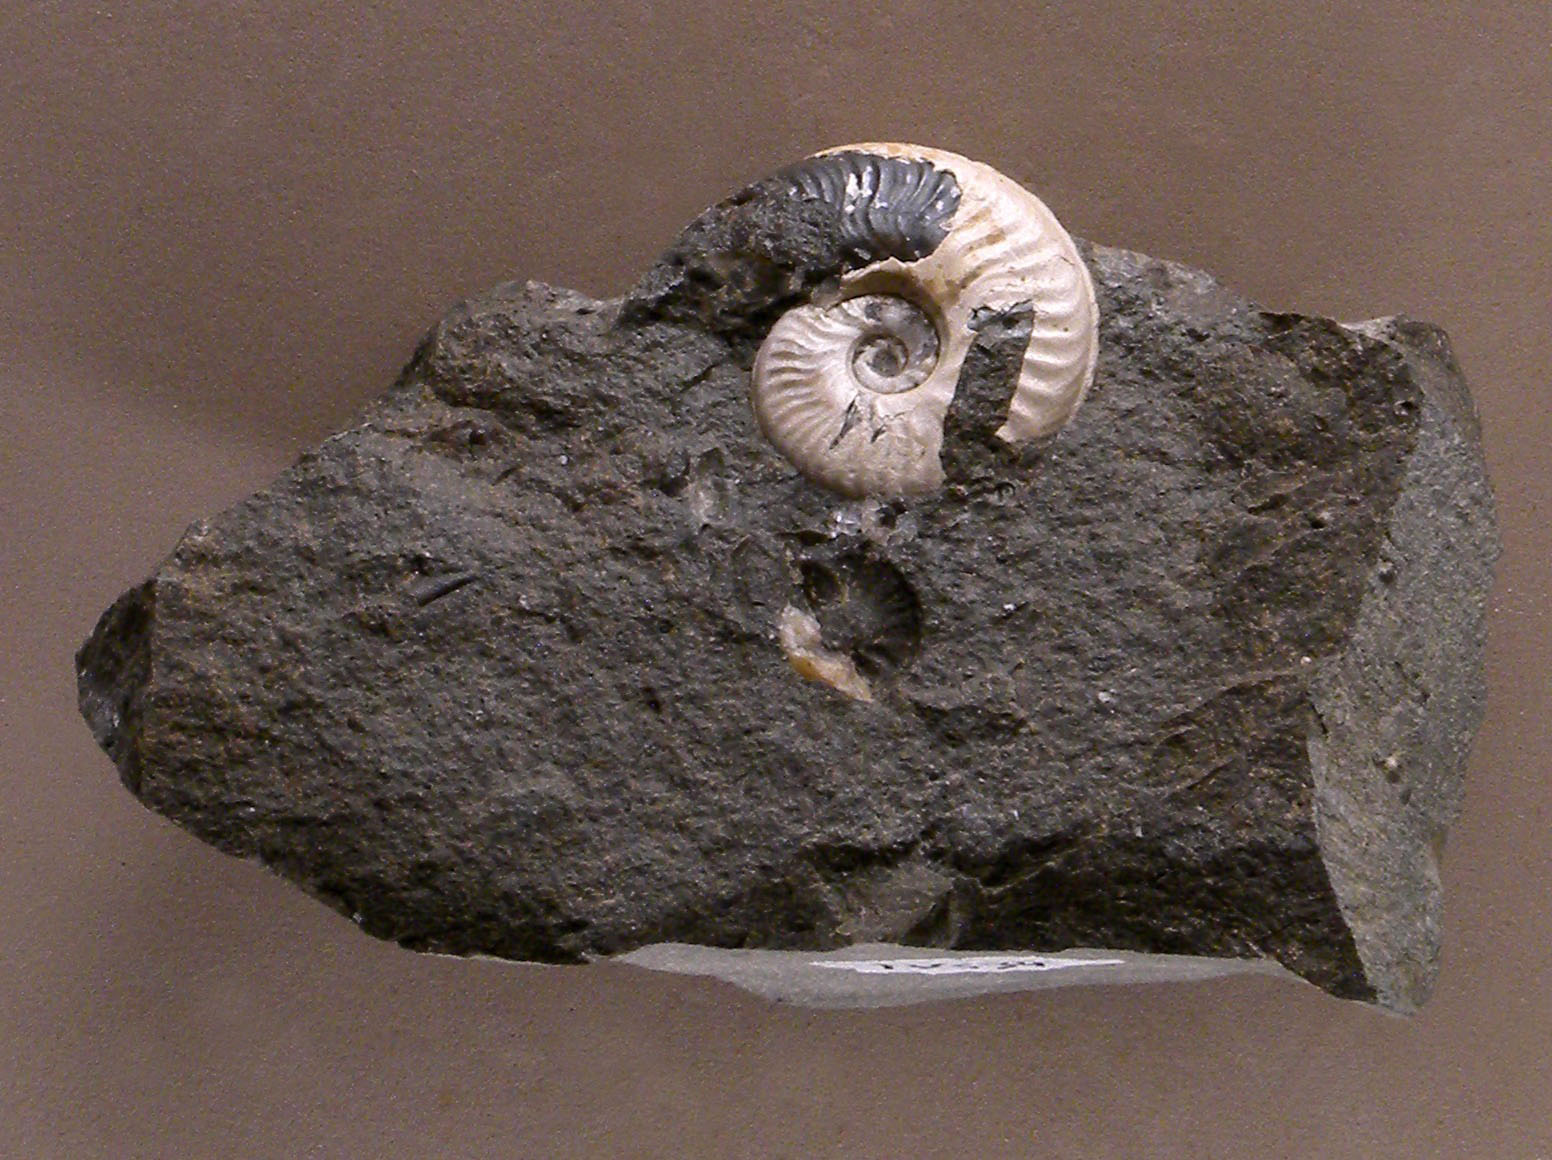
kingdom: Animalia
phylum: Mollusca
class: Cephalopoda
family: Hildoceratidae
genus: Harpoceras
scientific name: Harpoceras
